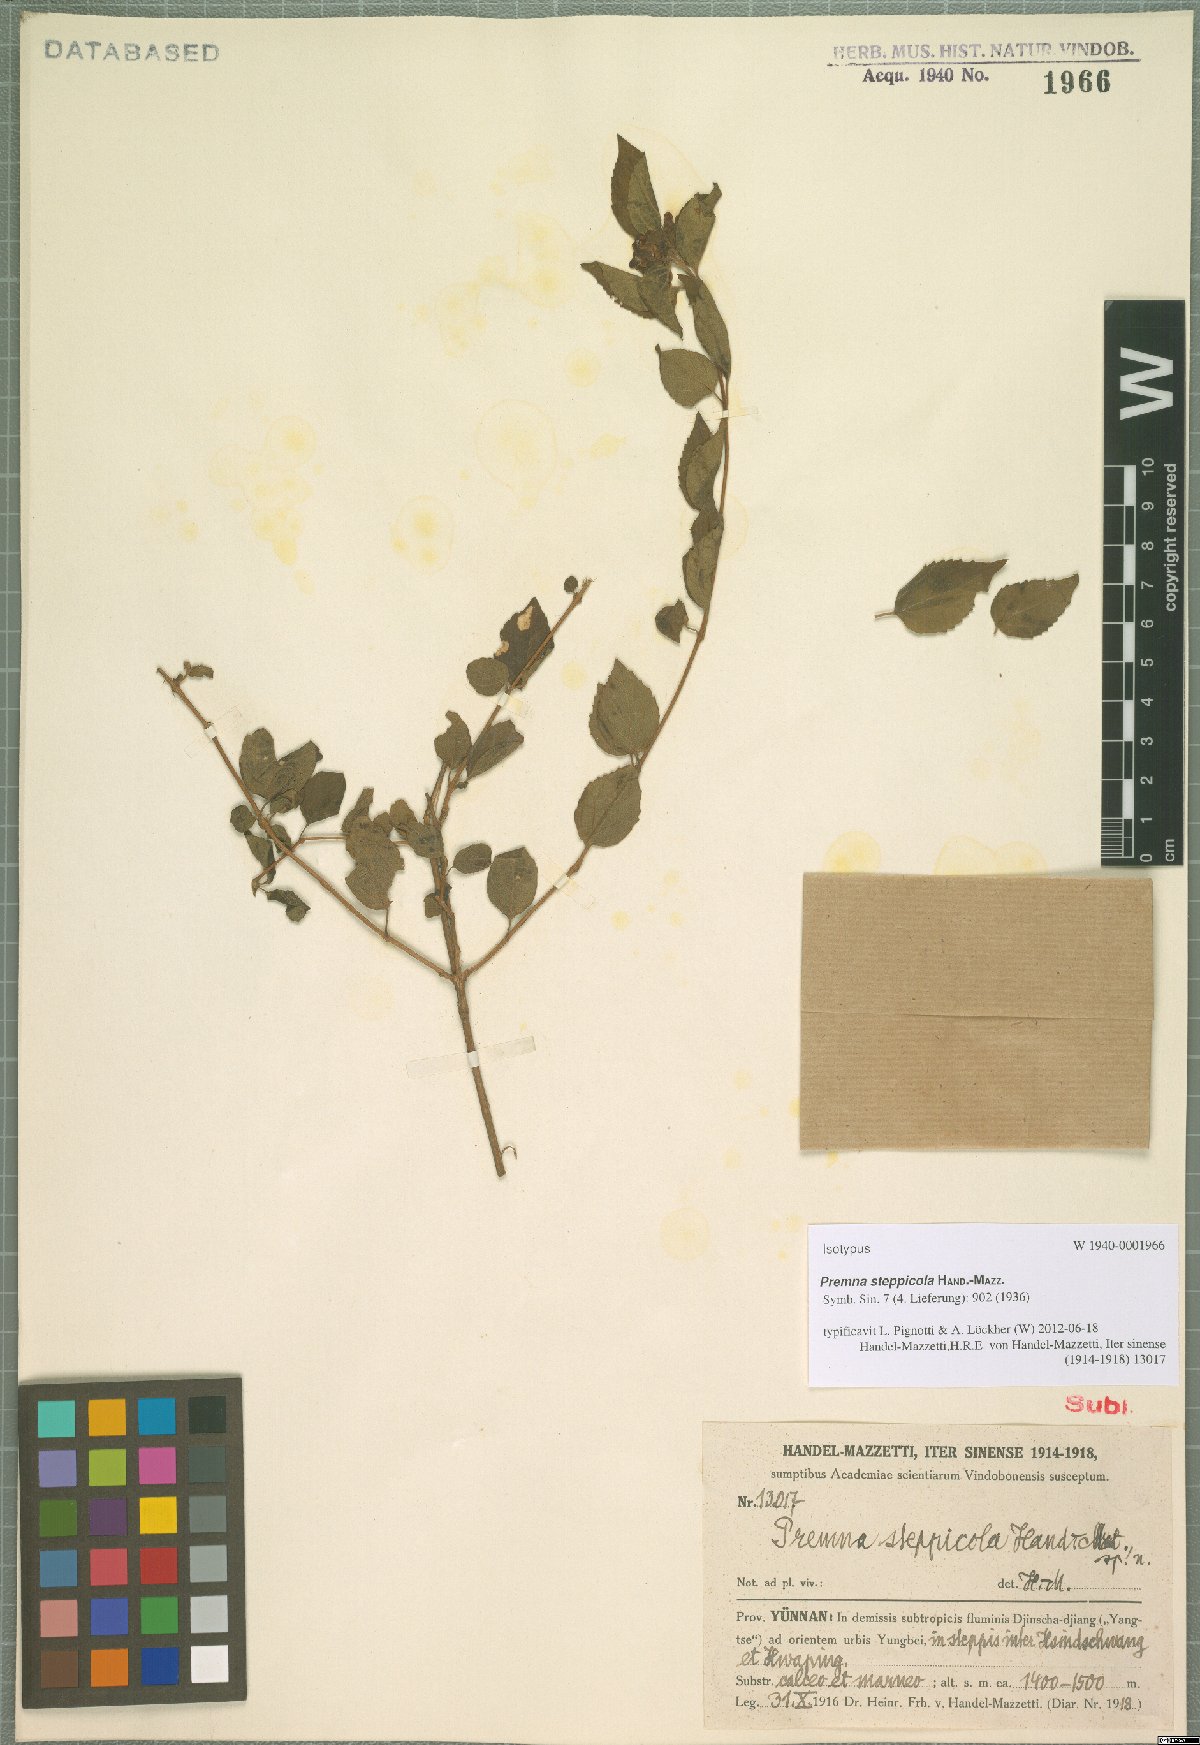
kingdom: Plantae
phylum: Tracheophyta
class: Magnoliopsida
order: Lamiales
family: Lamiaceae
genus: Premna
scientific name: Premna acutata
